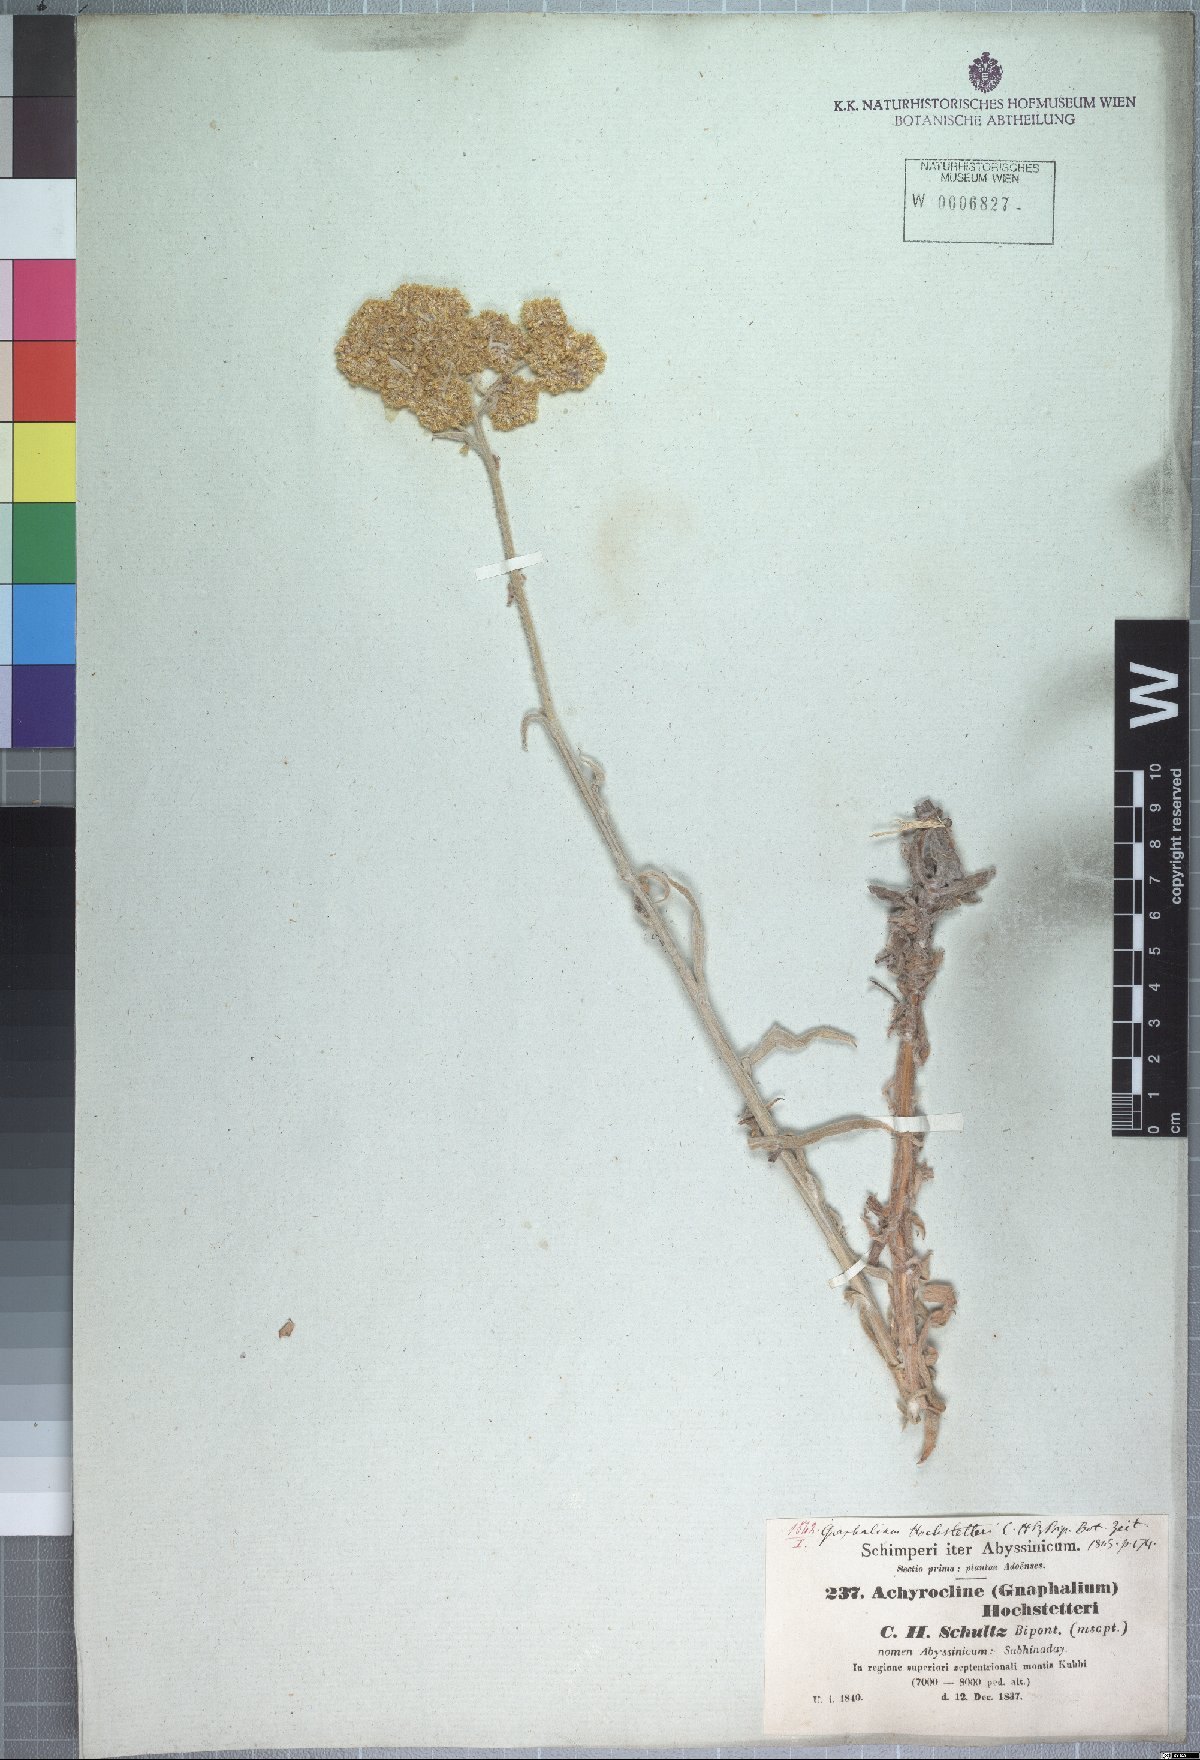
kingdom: Plantae
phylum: Tracheophyta
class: Magnoliopsida
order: Asterales
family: Asteraceae
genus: Helichrysum
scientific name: Helichrysum stenopterum
